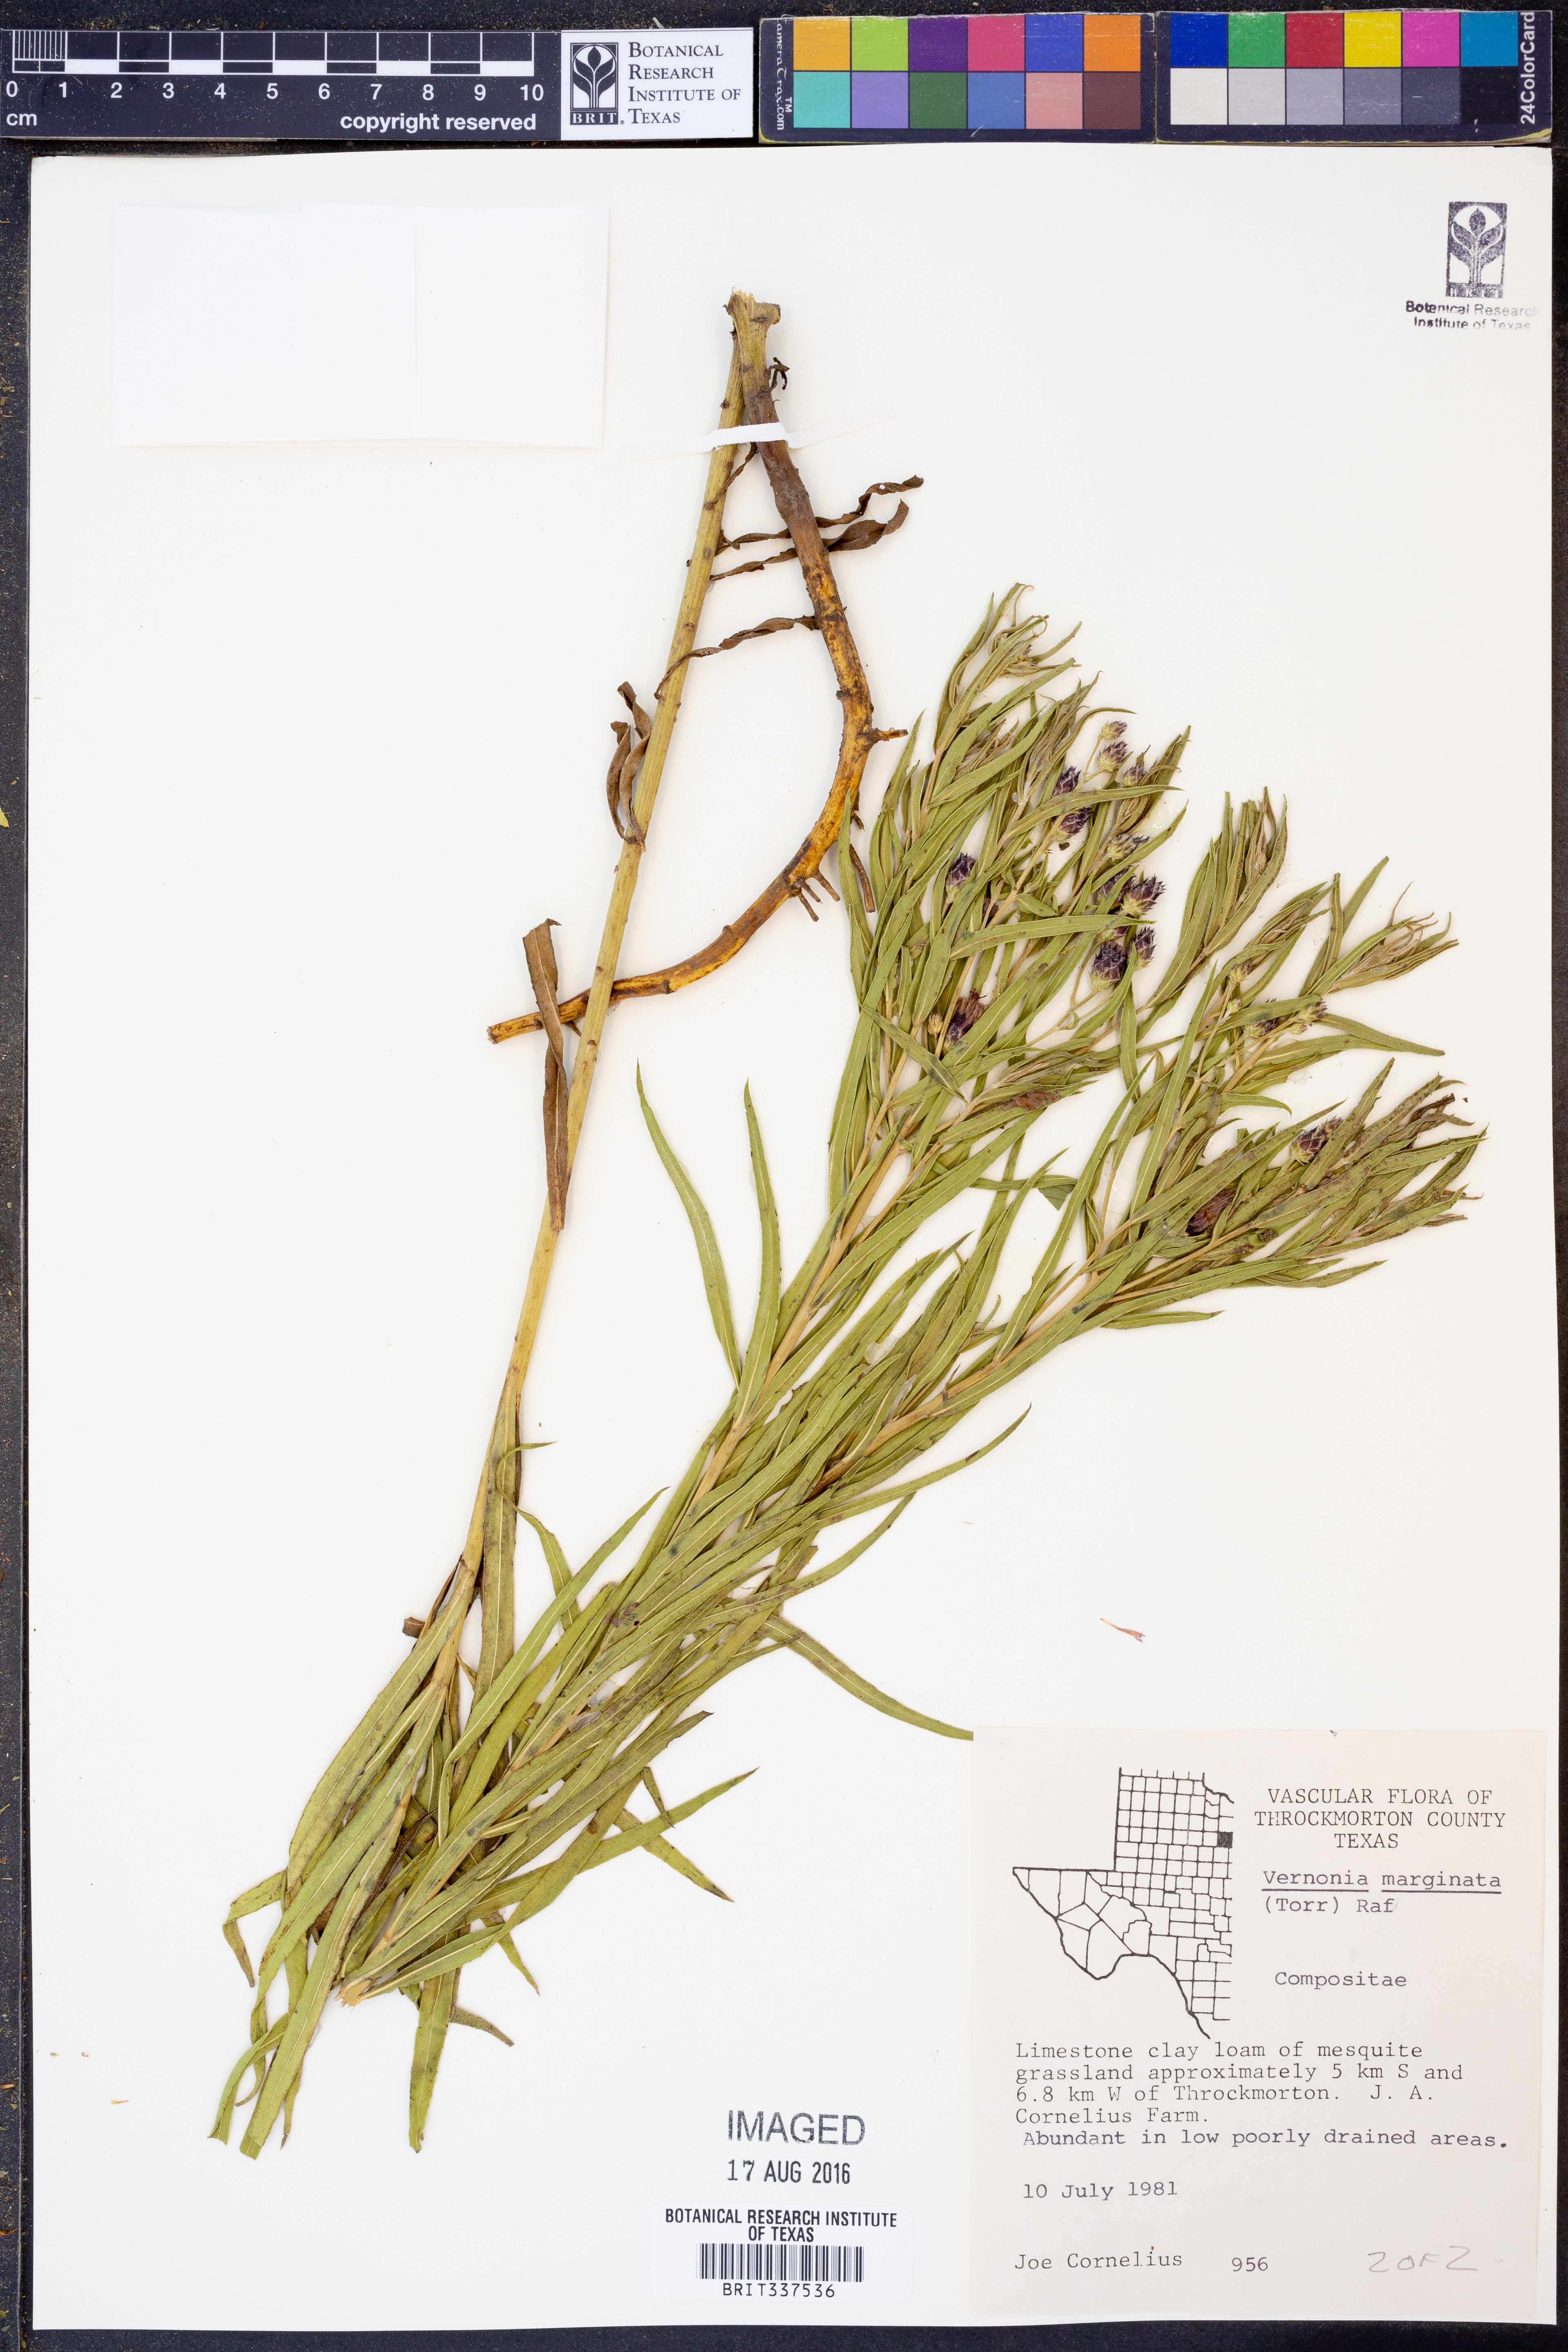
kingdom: Plantae
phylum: Tracheophyta
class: Magnoliopsida
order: Asterales
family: Asteraceae
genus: Vernonia
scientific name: Vernonia marginata
